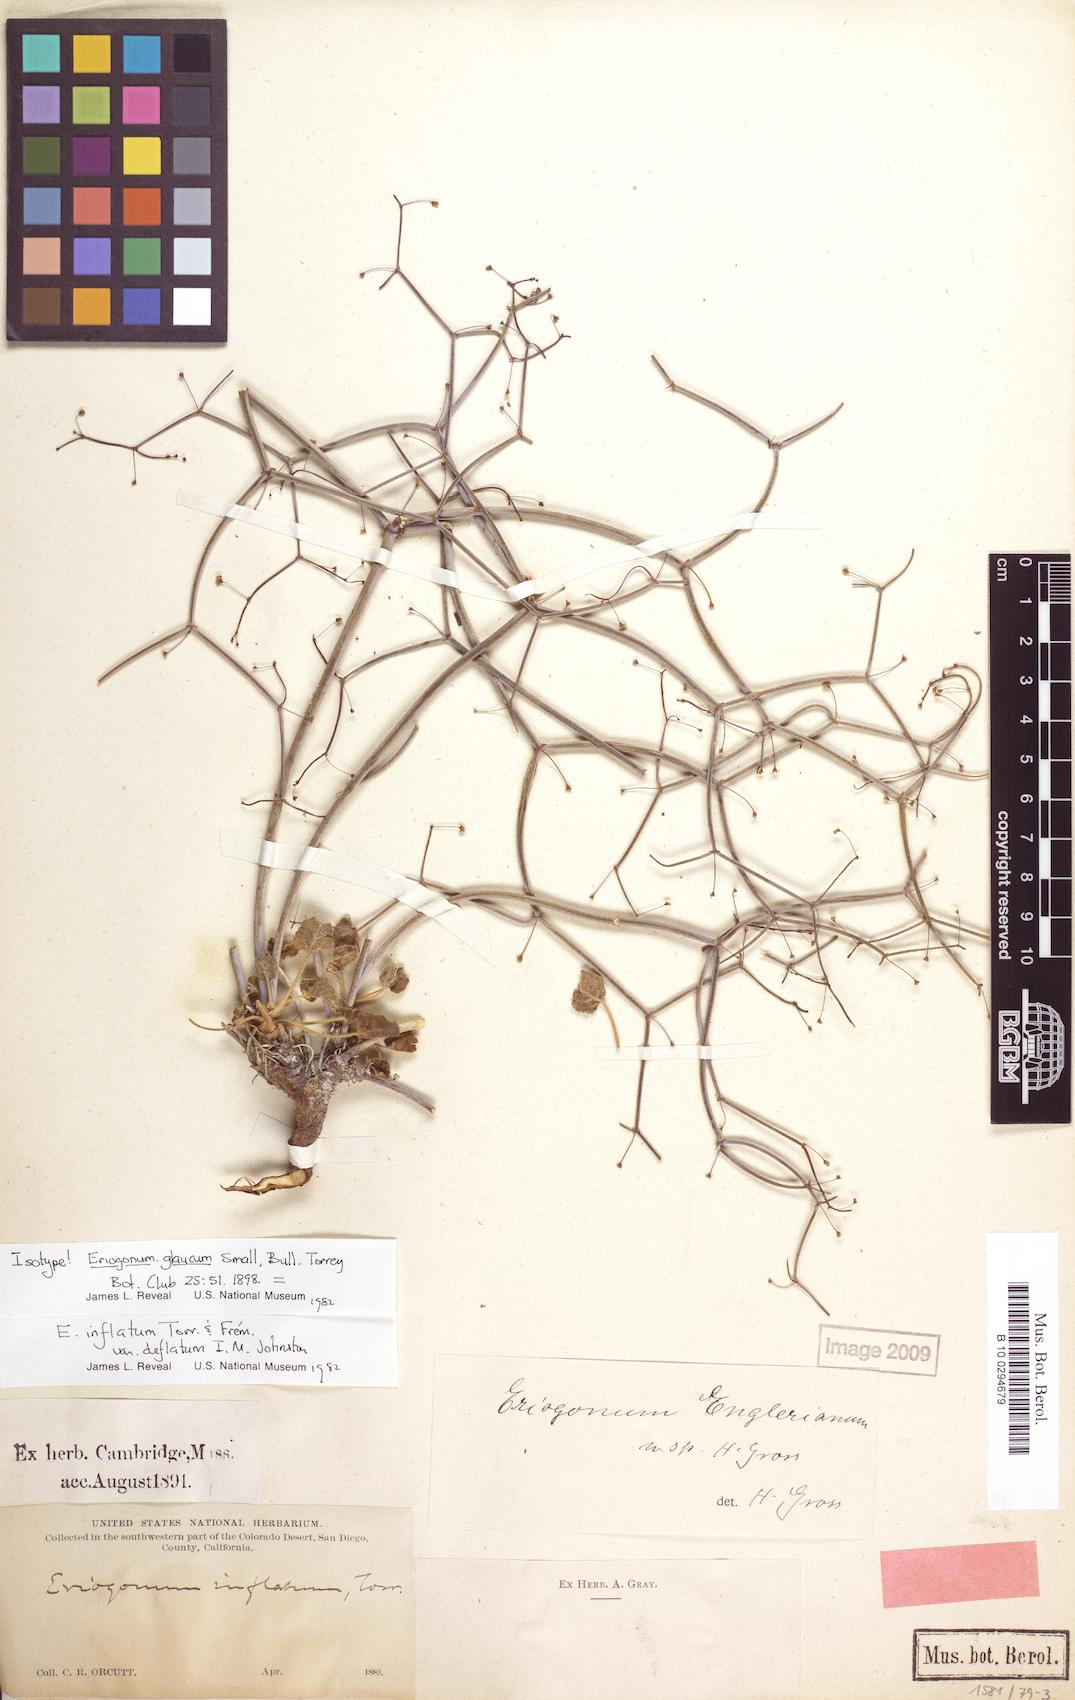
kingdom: Plantae
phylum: Tracheophyta
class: Magnoliopsida
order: Caryophyllales
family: Polygonaceae
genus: Eriogonum
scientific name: Eriogonum inflatum
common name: Desert trumpet
